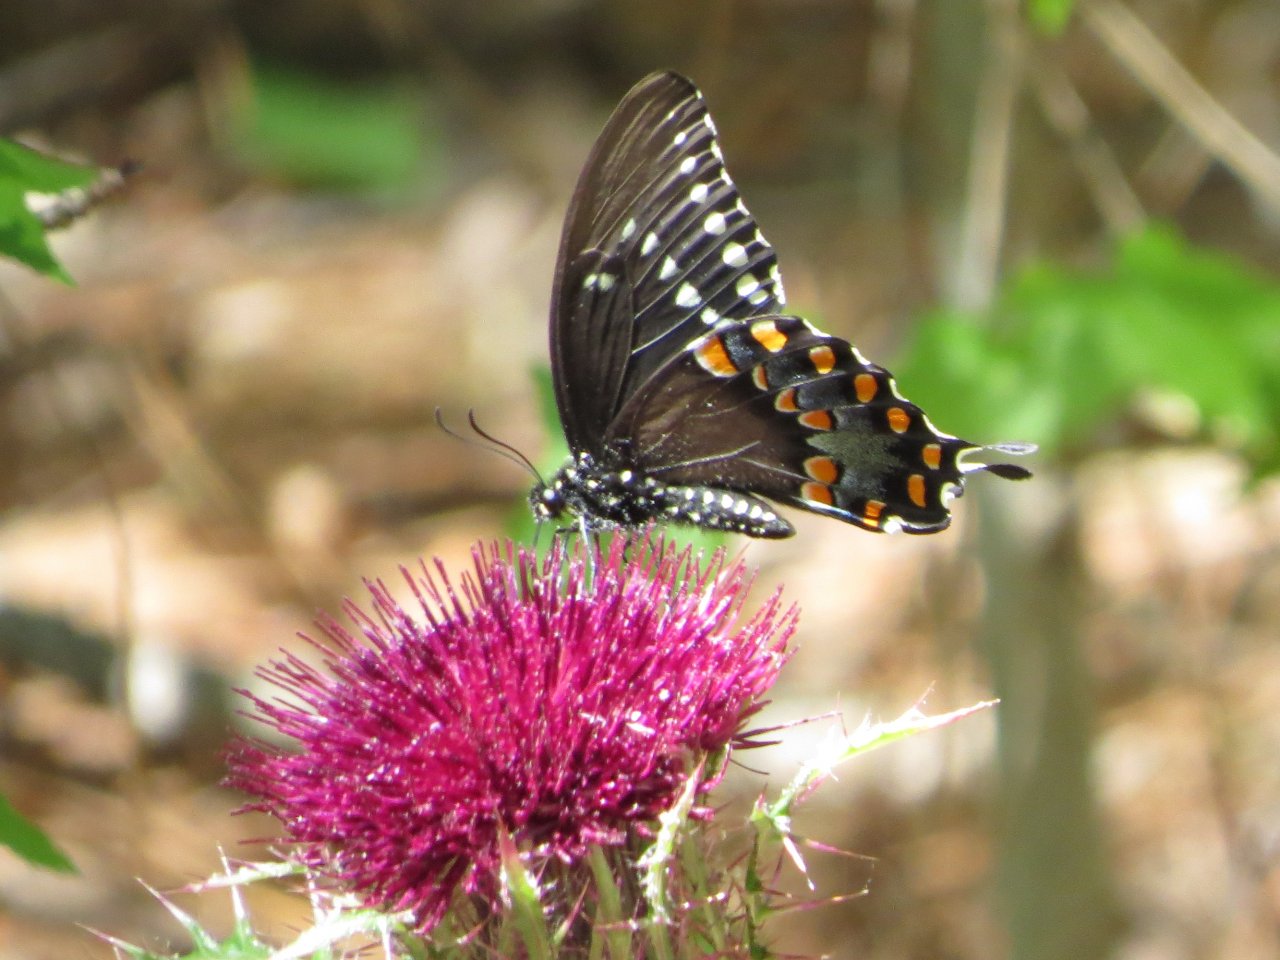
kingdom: Animalia
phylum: Arthropoda
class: Insecta
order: Lepidoptera
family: Papilionidae
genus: Pterourus
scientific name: Pterourus troilus
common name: Spicebush Swallowtail
